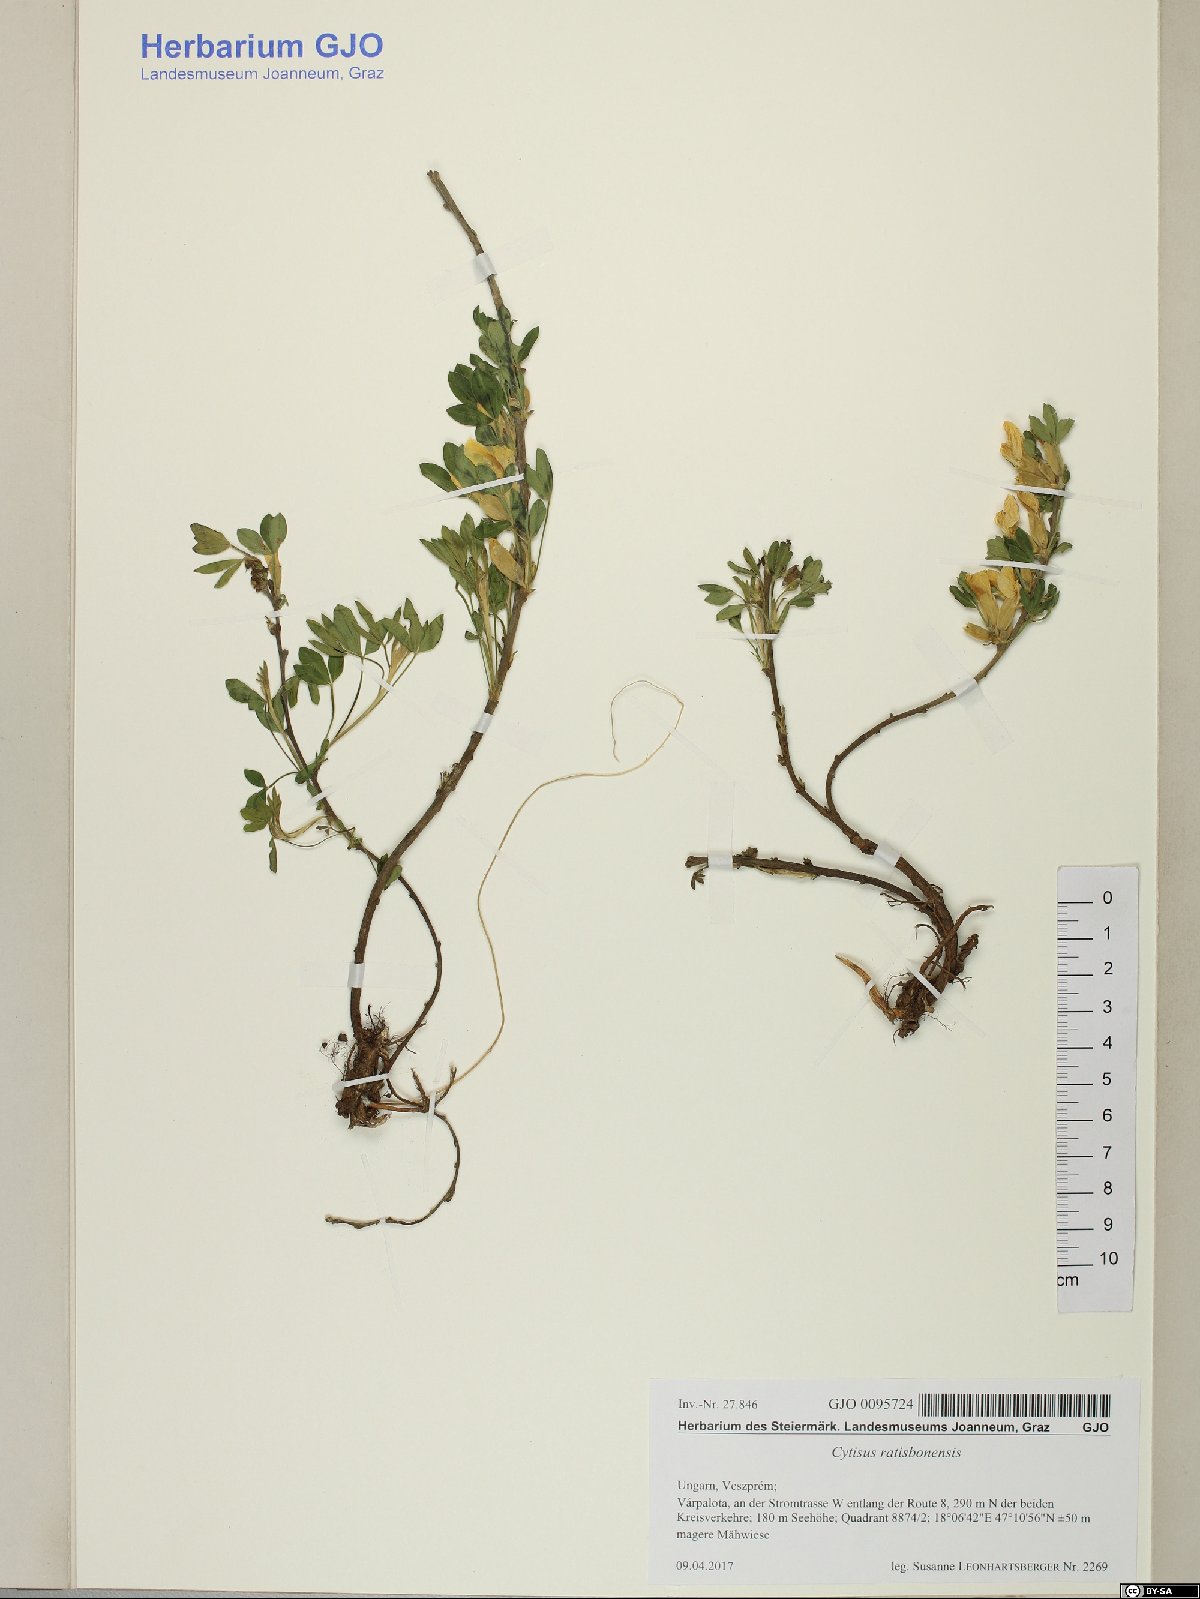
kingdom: Plantae
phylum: Tracheophyta
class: Magnoliopsida
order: Fabales
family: Fabaceae
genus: Chamaecytisus
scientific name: Chamaecytisus ratisbonensis
